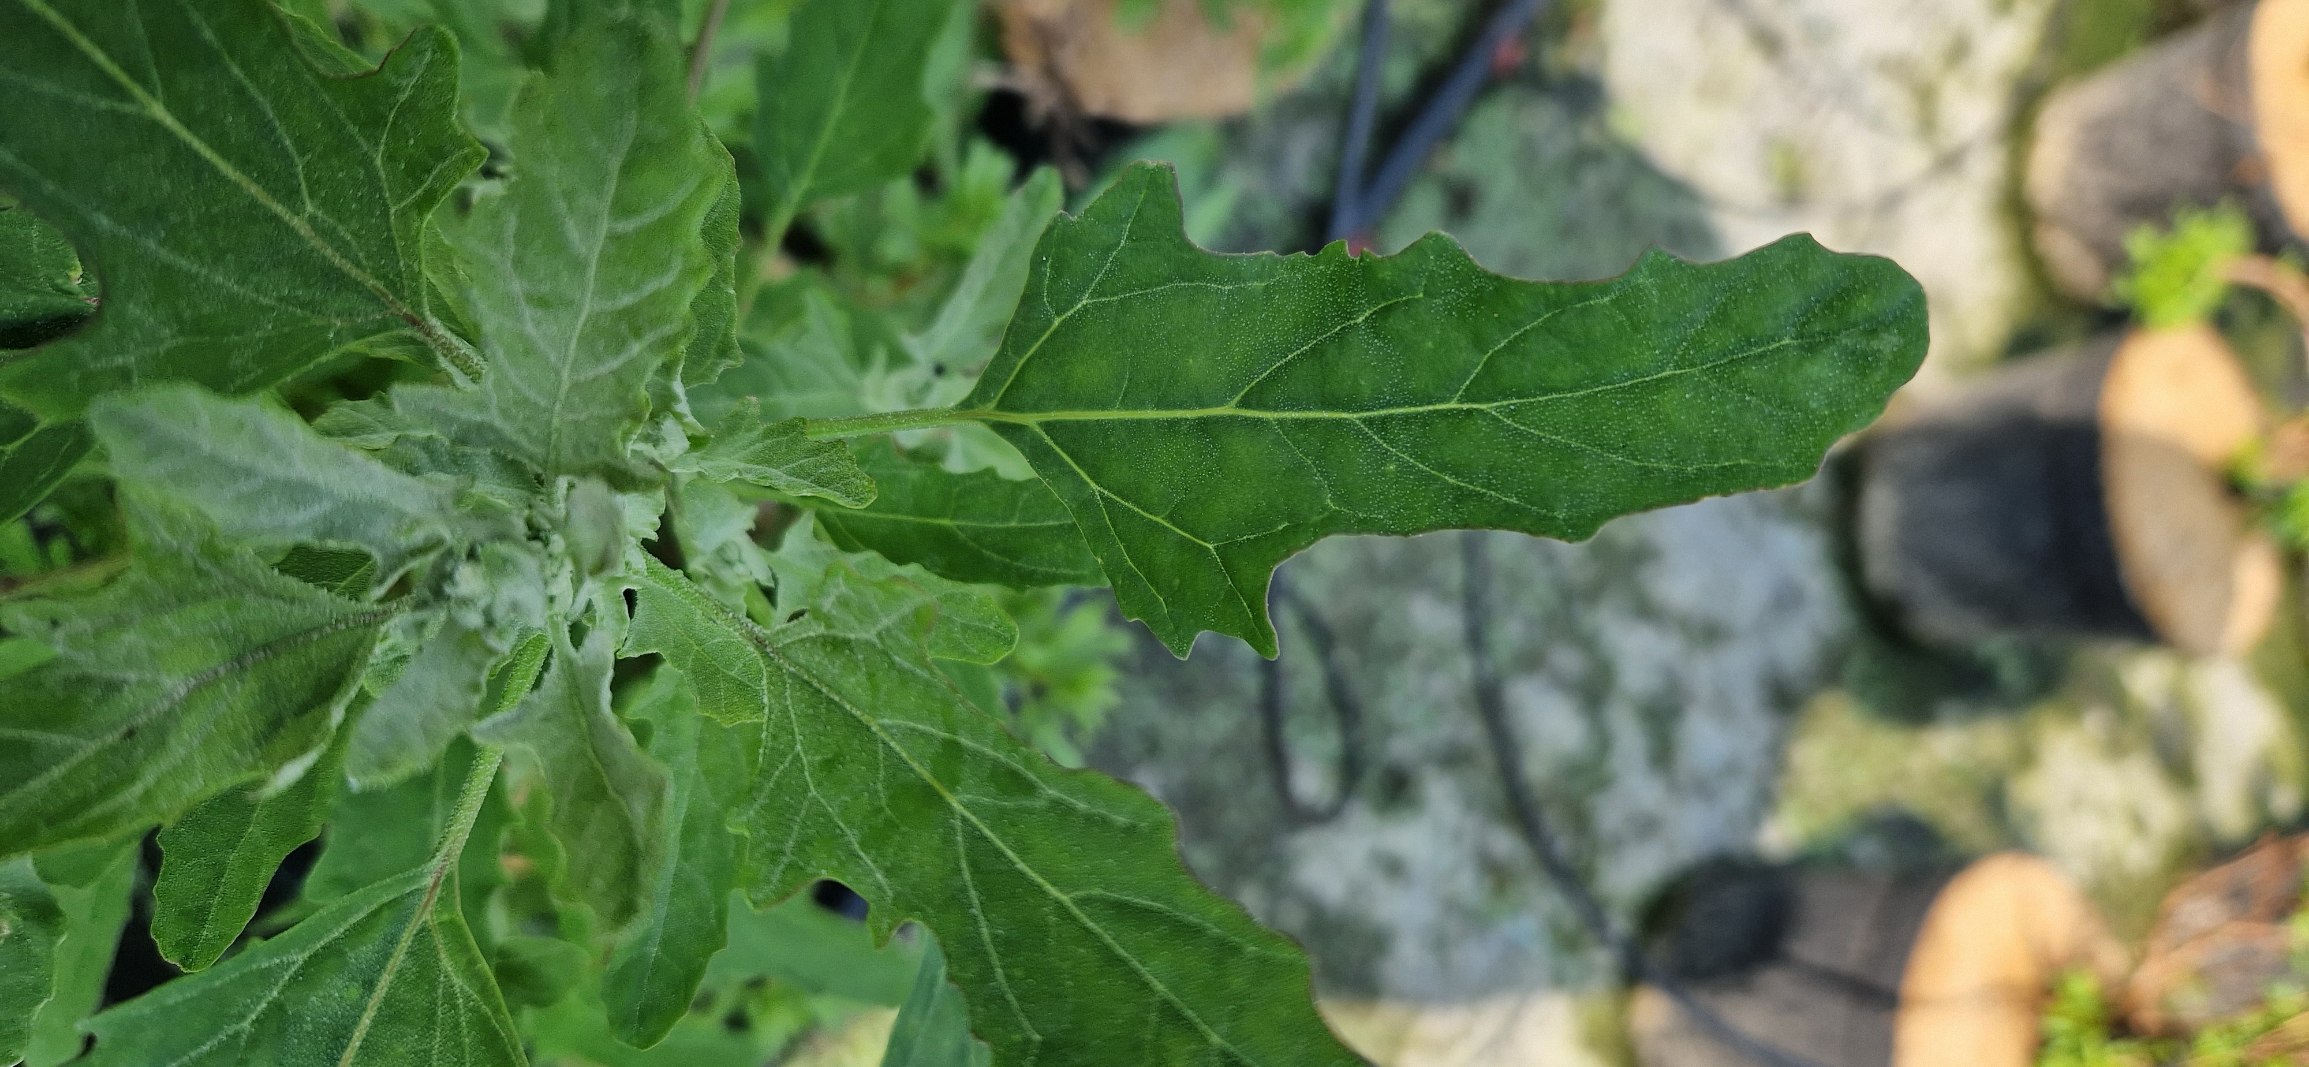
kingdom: Plantae
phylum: Tracheophyta
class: Magnoliopsida
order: Caryophyllales
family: Amaranthaceae
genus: Chenopodium
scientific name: Chenopodium ficifolium
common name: Figenbladet gåsefod
